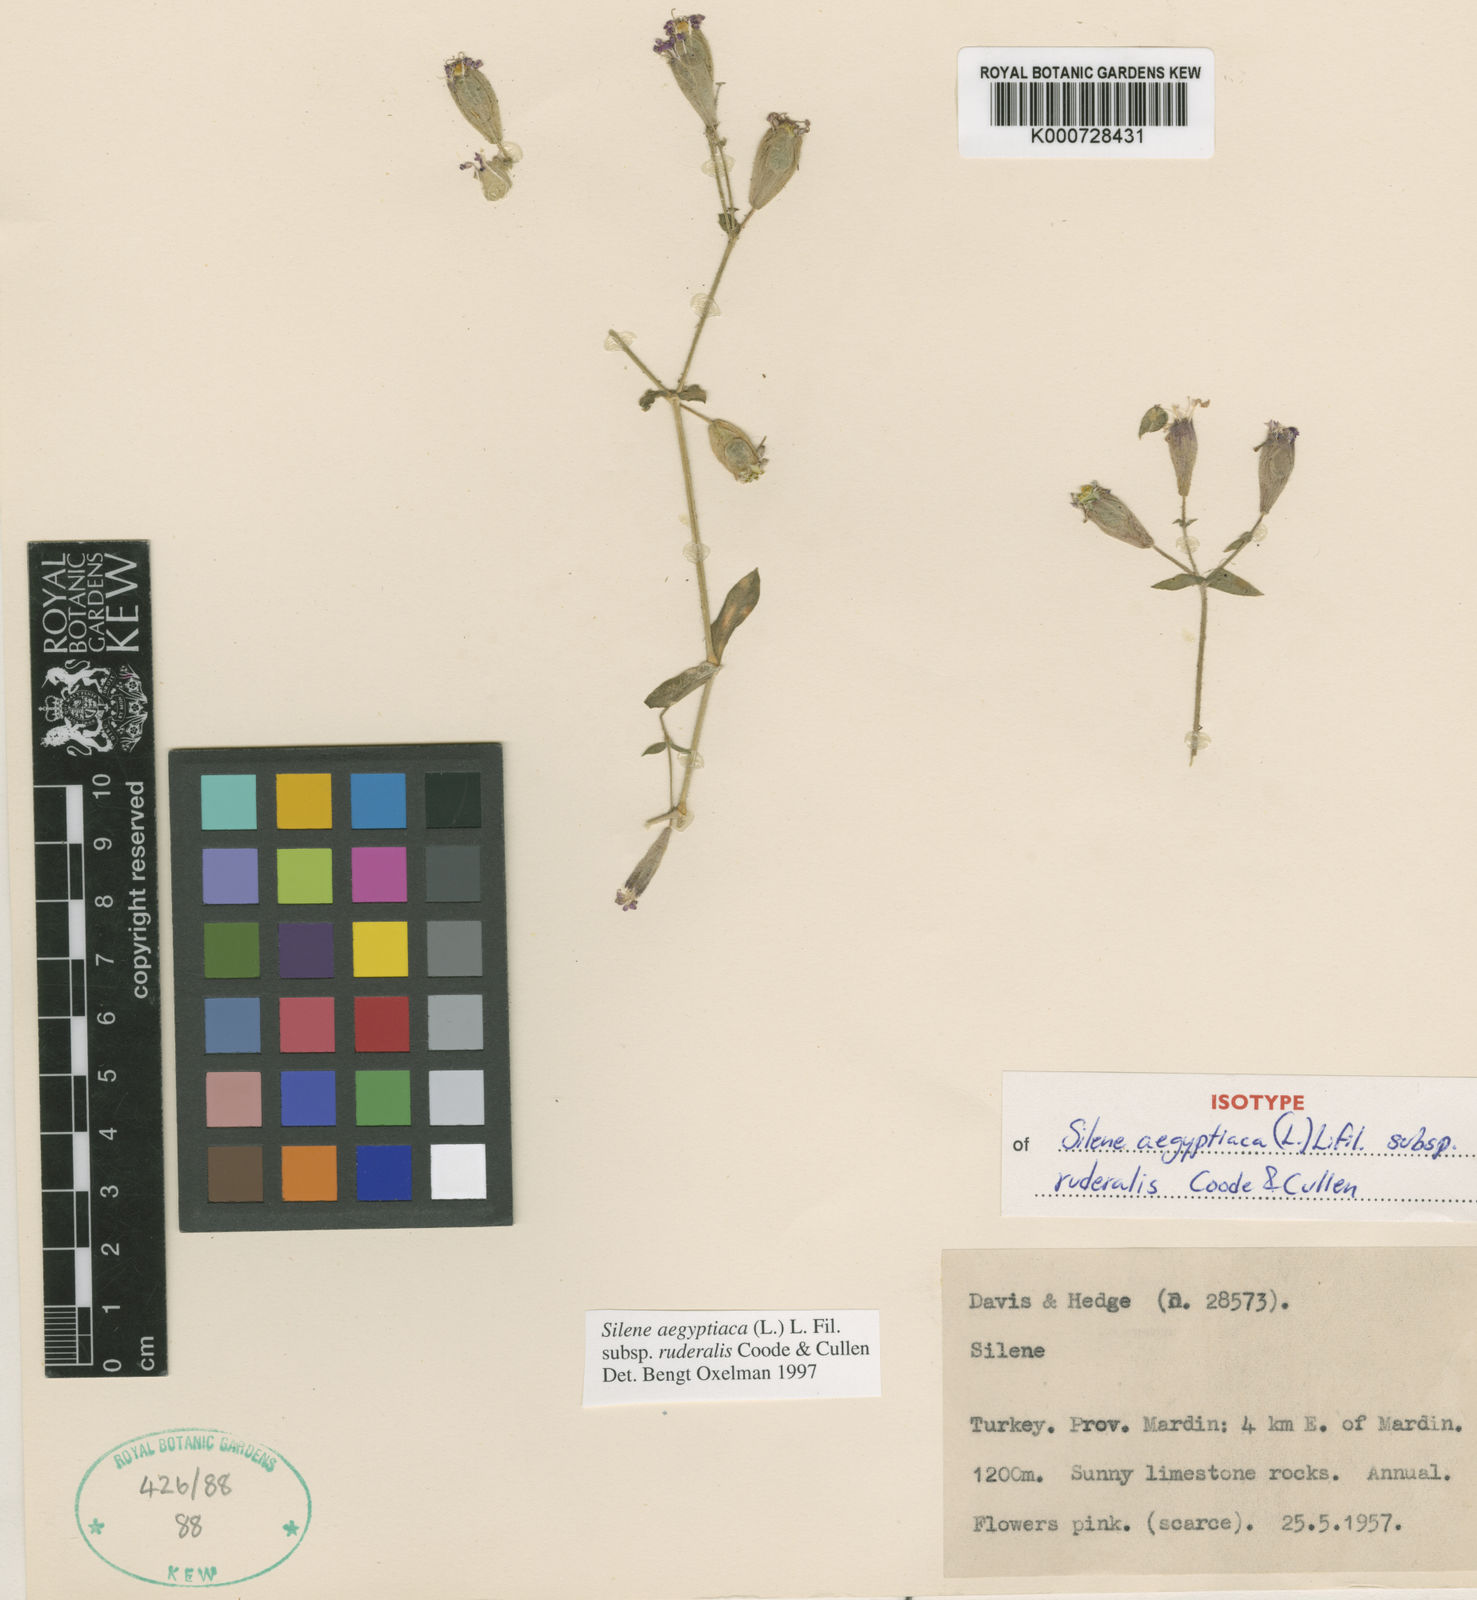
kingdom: Plantae
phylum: Tracheophyta
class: Magnoliopsida
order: Caryophyllales
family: Caryophyllaceae
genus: Silene
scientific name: Silene aegyptiaca
